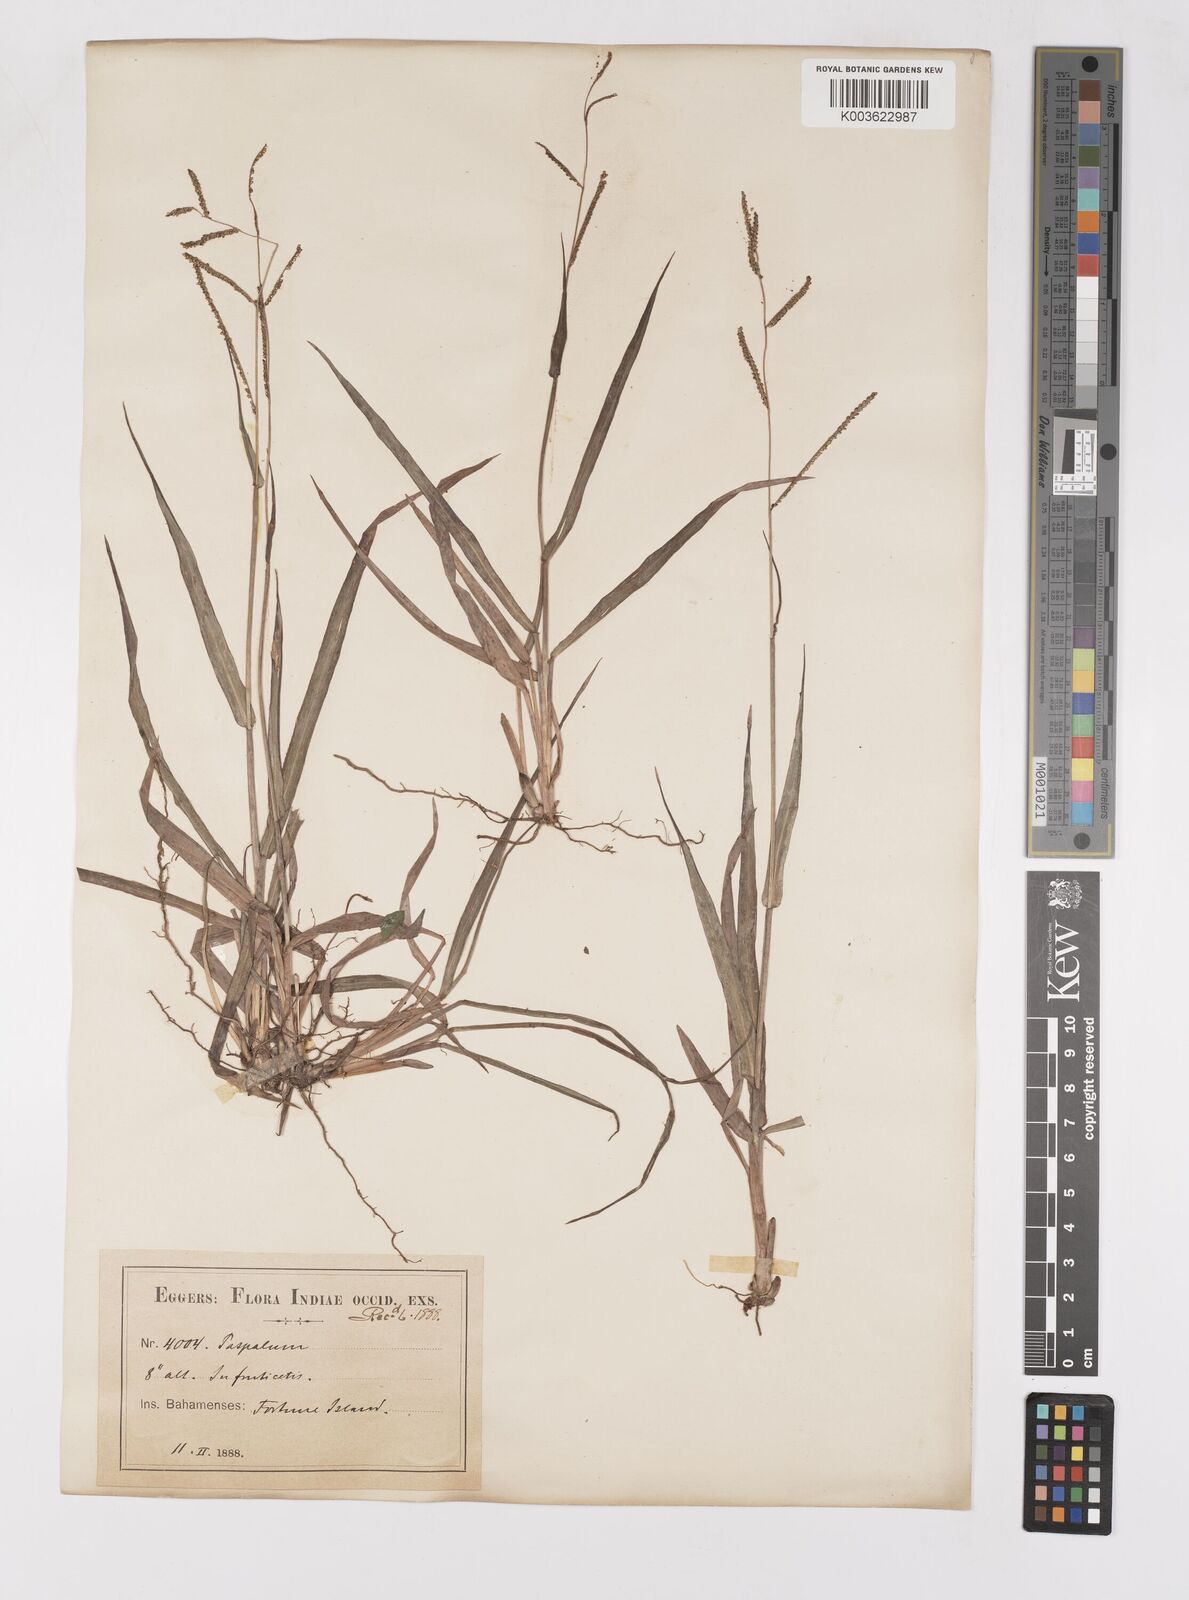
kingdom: Plantae
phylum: Tracheophyta
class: Liliopsida
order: Poales
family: Poaceae
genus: Paspalum
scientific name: Paspalum blodgettii
